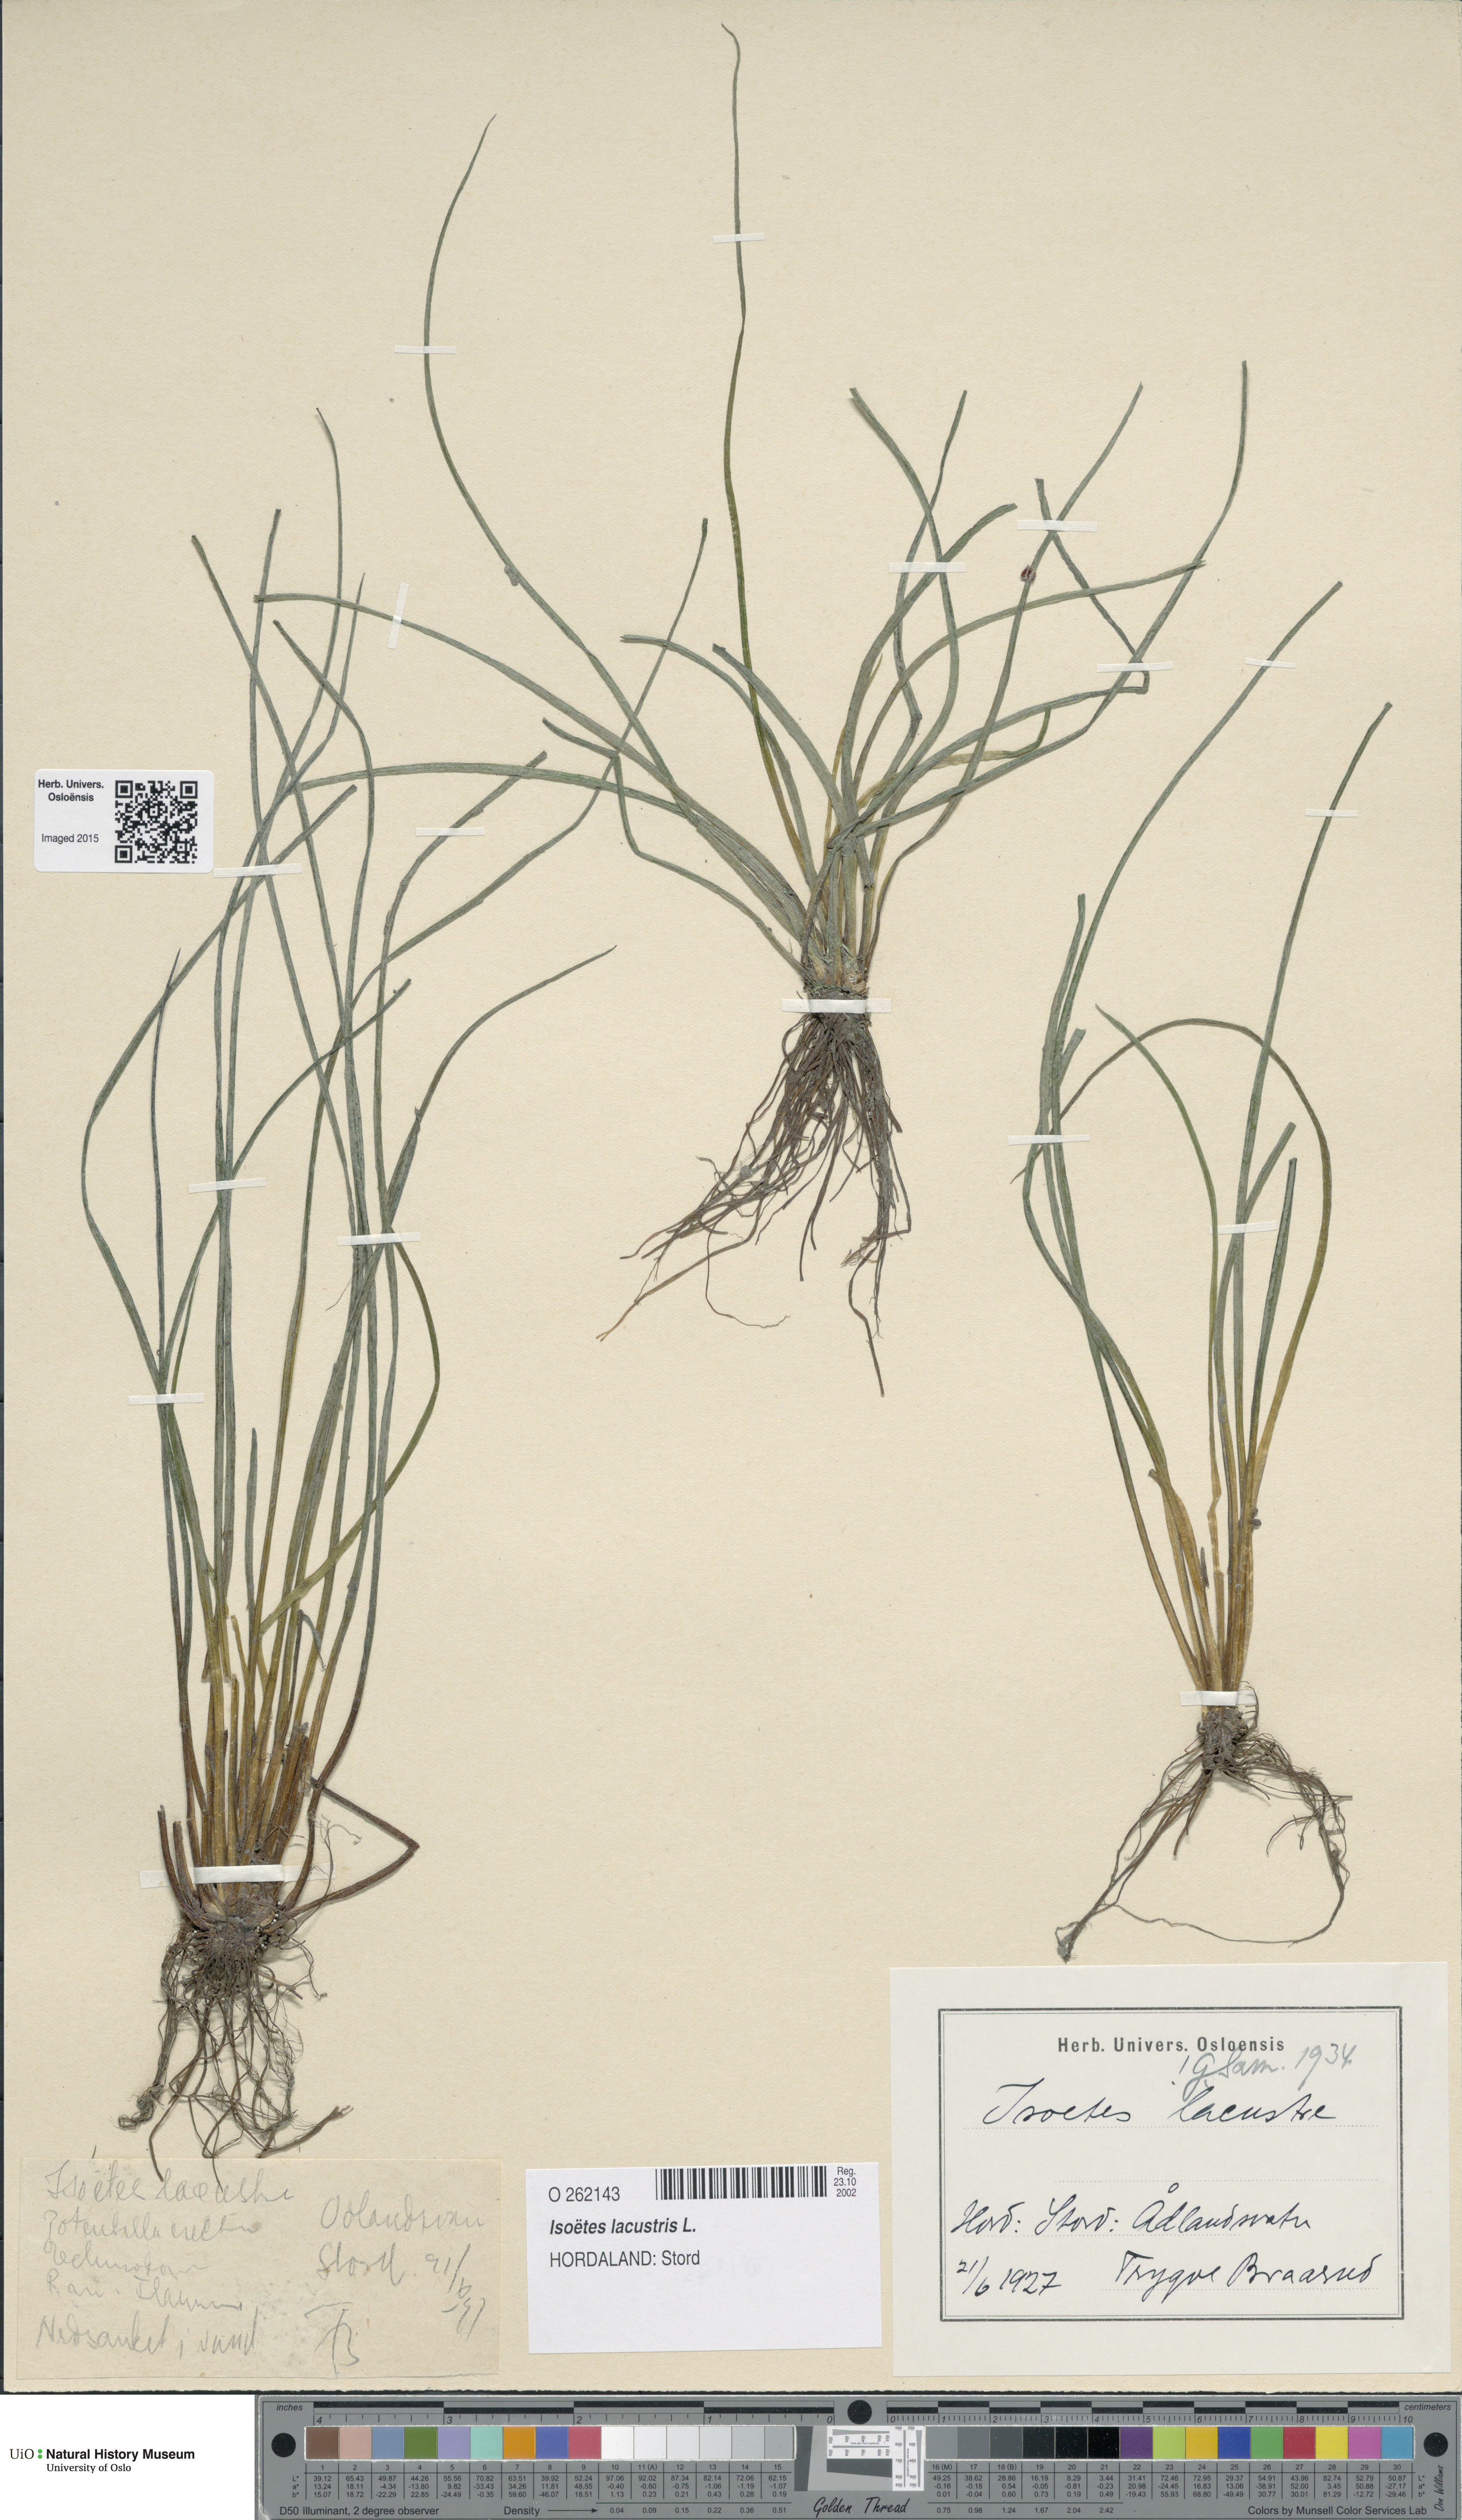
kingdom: Plantae
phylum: Tracheophyta
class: Lycopodiopsida
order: Isoetales
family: Isoetaceae
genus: Isoetes
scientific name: Isoetes lacustris
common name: Common quillwort
